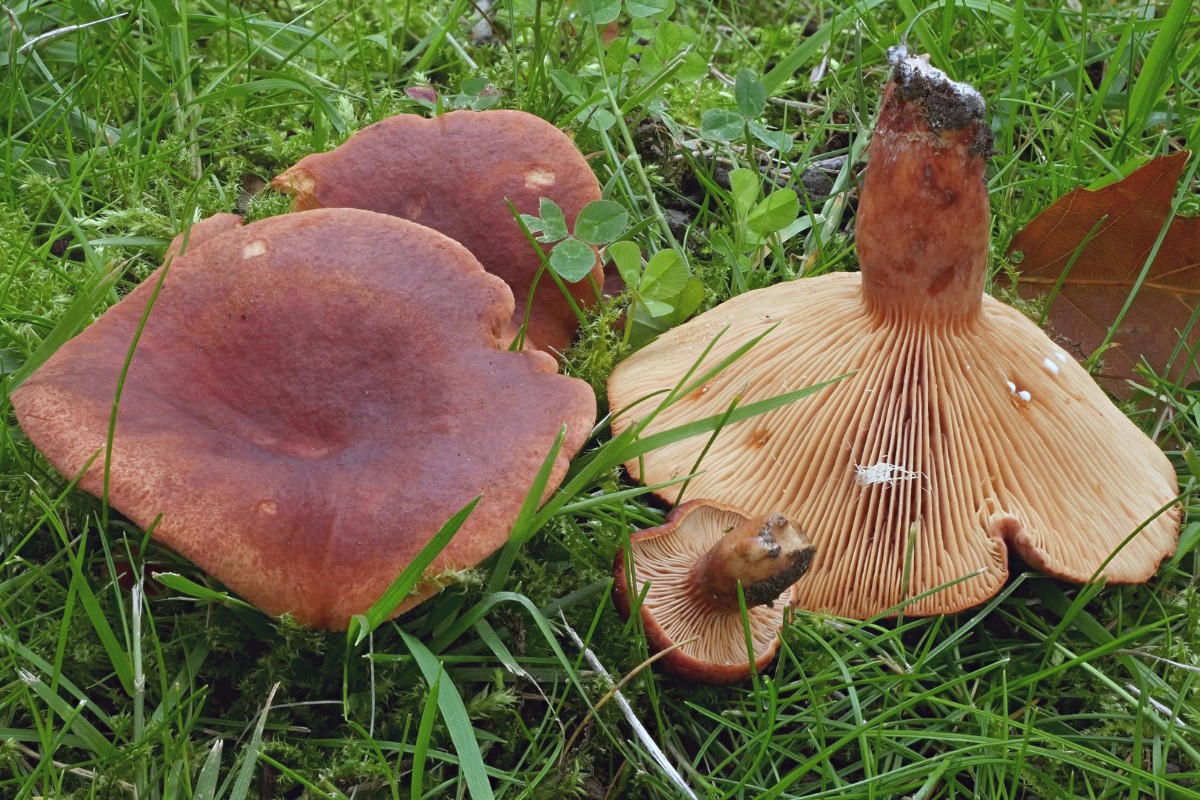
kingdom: Fungi
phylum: Basidiomycota
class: Agaricomycetes
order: Russulales
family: Russulaceae
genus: Lactarius
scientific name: Lactarius fulvissimus
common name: ræve-mælkehat
